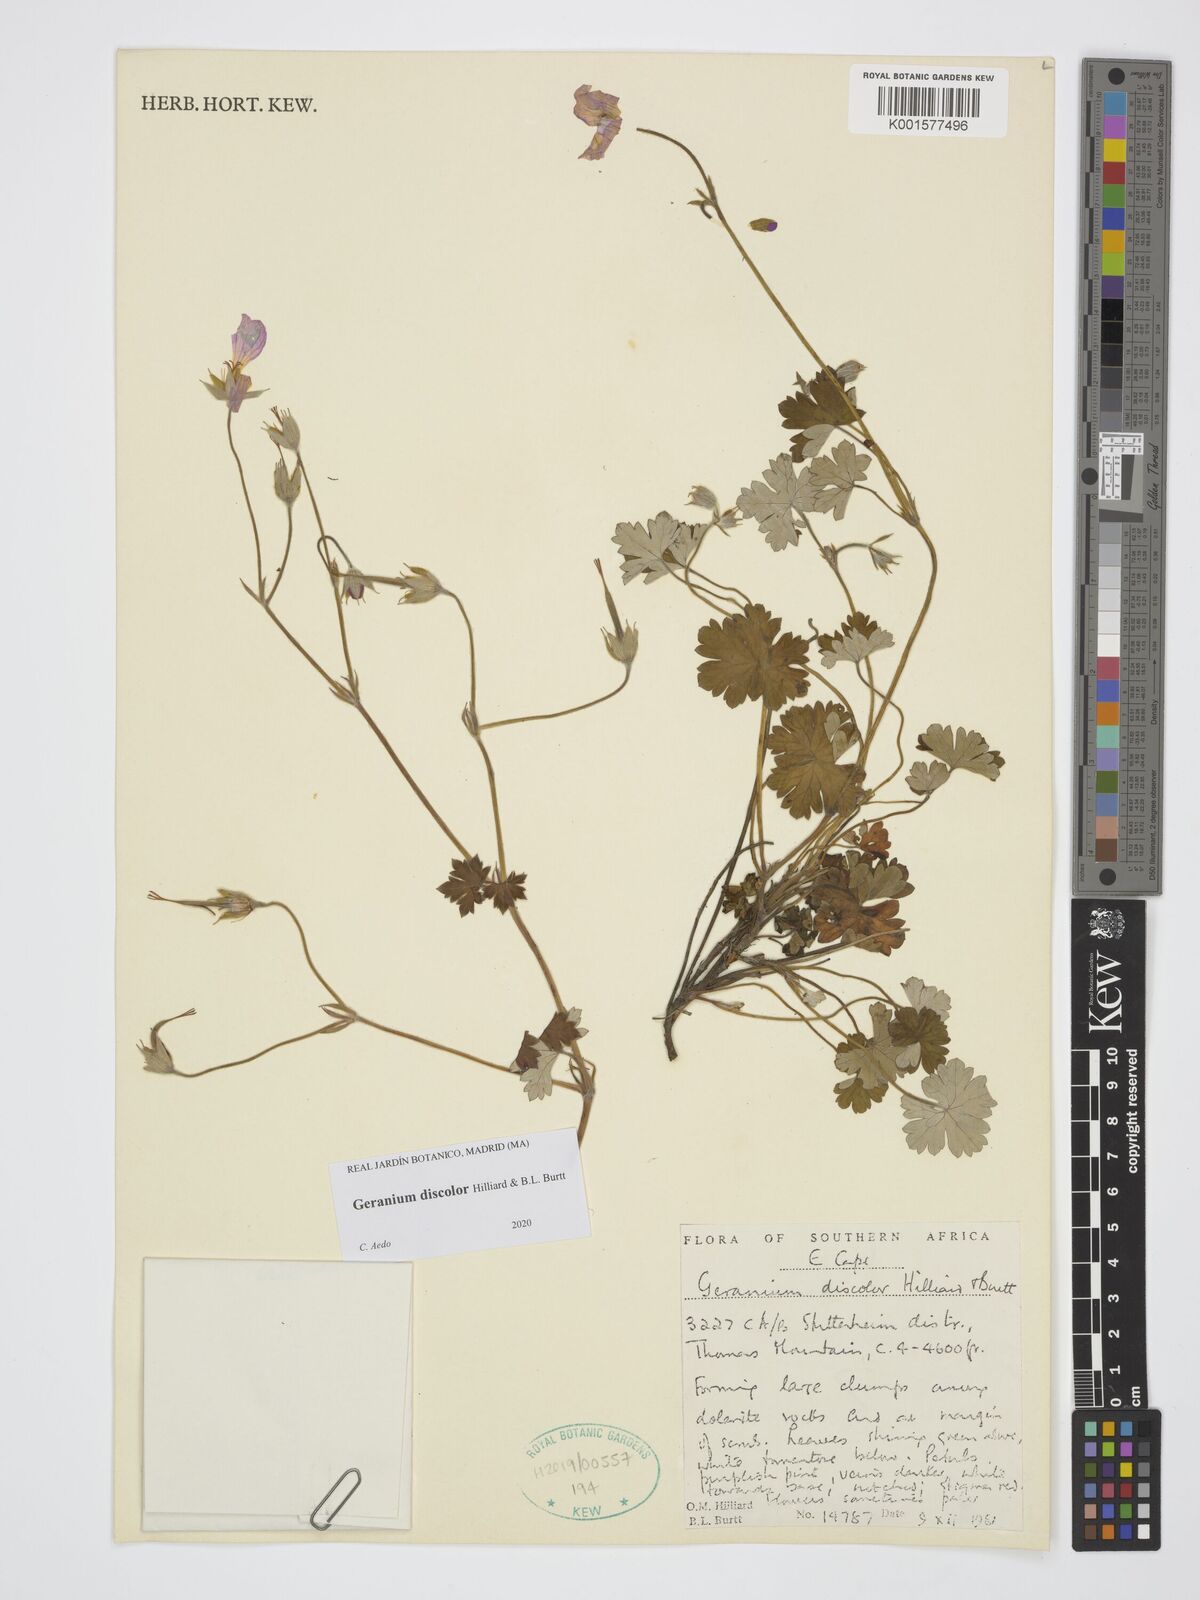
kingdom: Plantae
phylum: Tracheophyta
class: Magnoliopsida
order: Geraniales
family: Geraniaceae
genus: Geranium
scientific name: Geranium discolor
